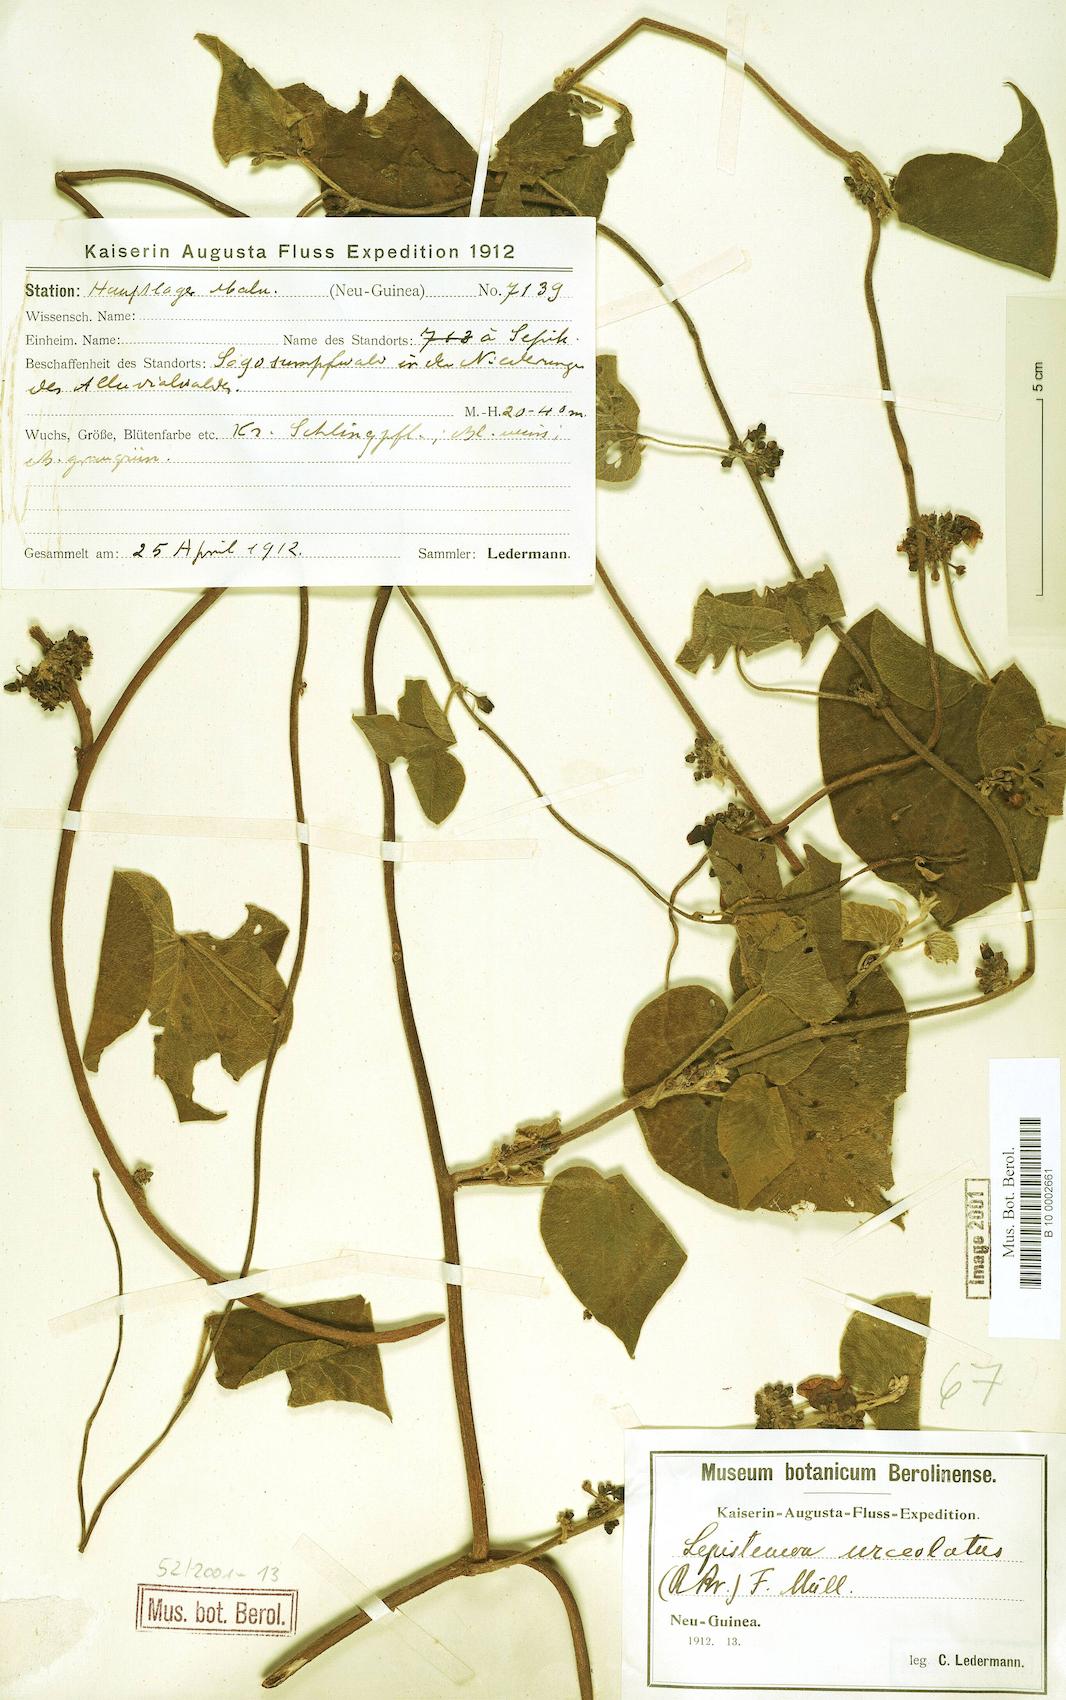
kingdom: Plantae
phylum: Tracheophyta
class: Magnoliopsida
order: Solanales
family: Convolvulaceae
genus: Lepistemon
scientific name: Lepistemon urceolatus
